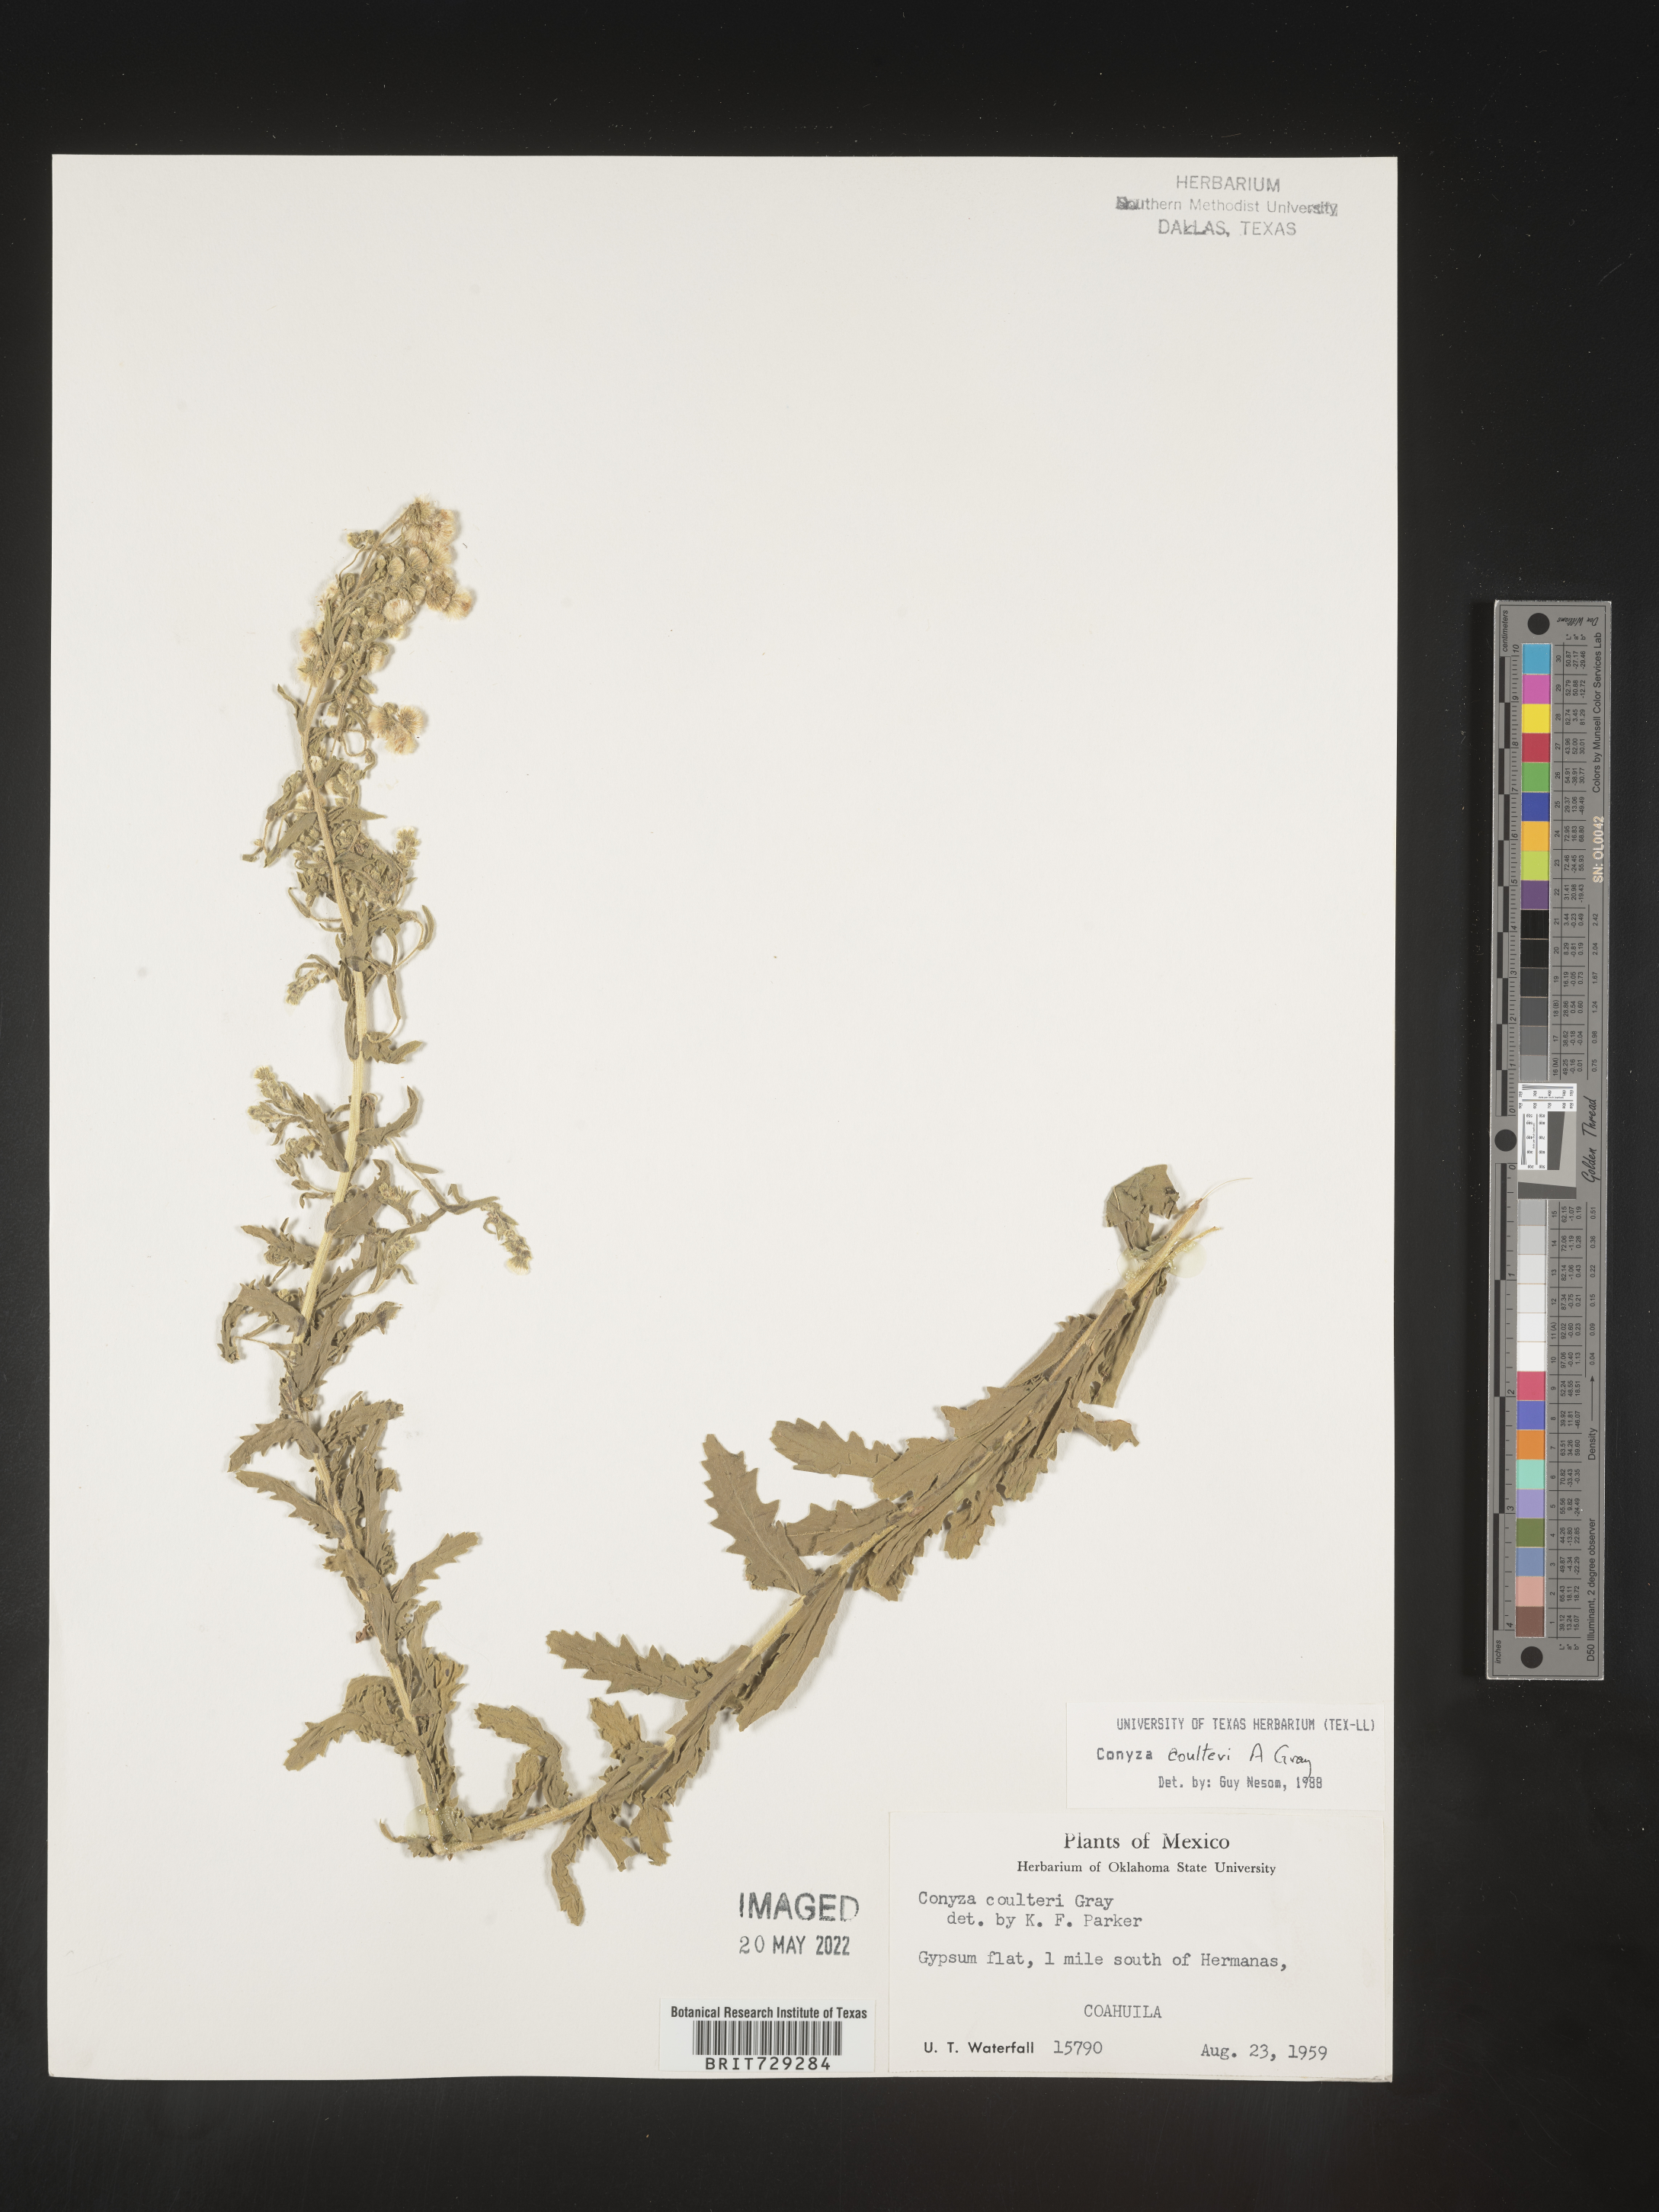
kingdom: Plantae
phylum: Tracheophyta
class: Magnoliopsida
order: Asterales
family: Asteraceae
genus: Laennecia
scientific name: Laennecia
